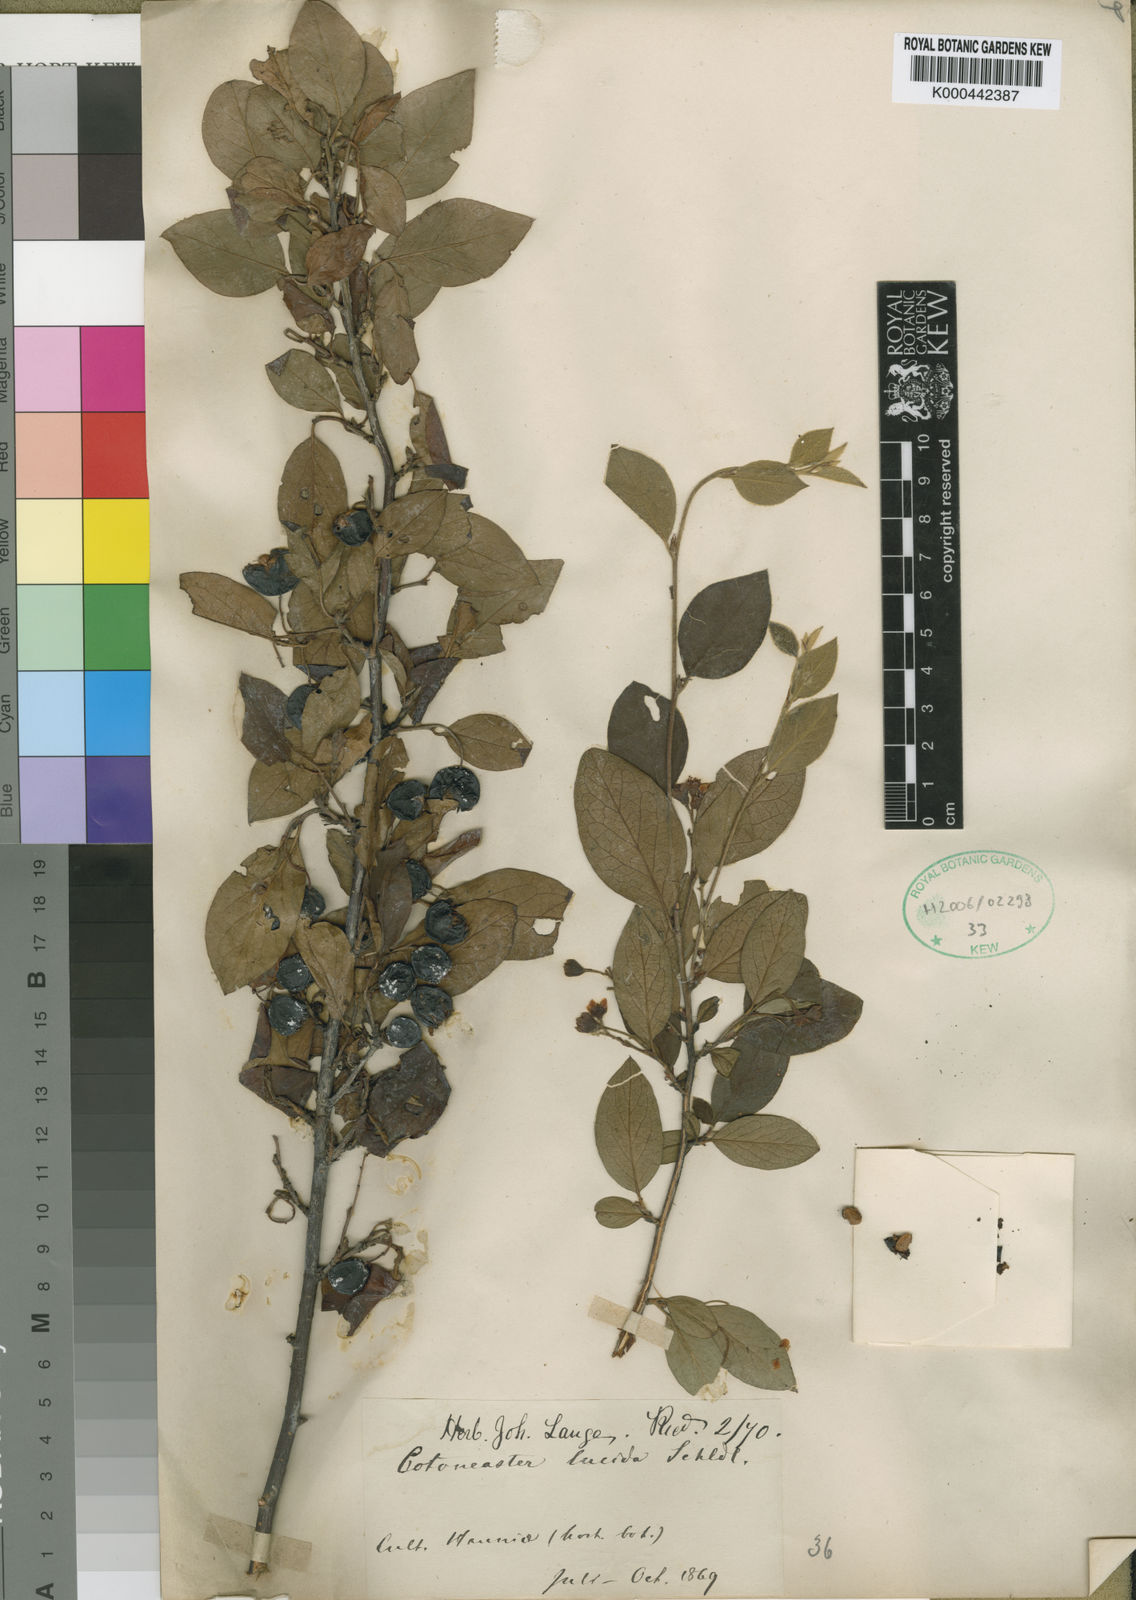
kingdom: Plantae
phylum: Tracheophyta
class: Magnoliopsida
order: Rosales
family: Rosaceae
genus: Cotoneaster
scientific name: Cotoneaster acutifolius
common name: Peking cotoneaster
